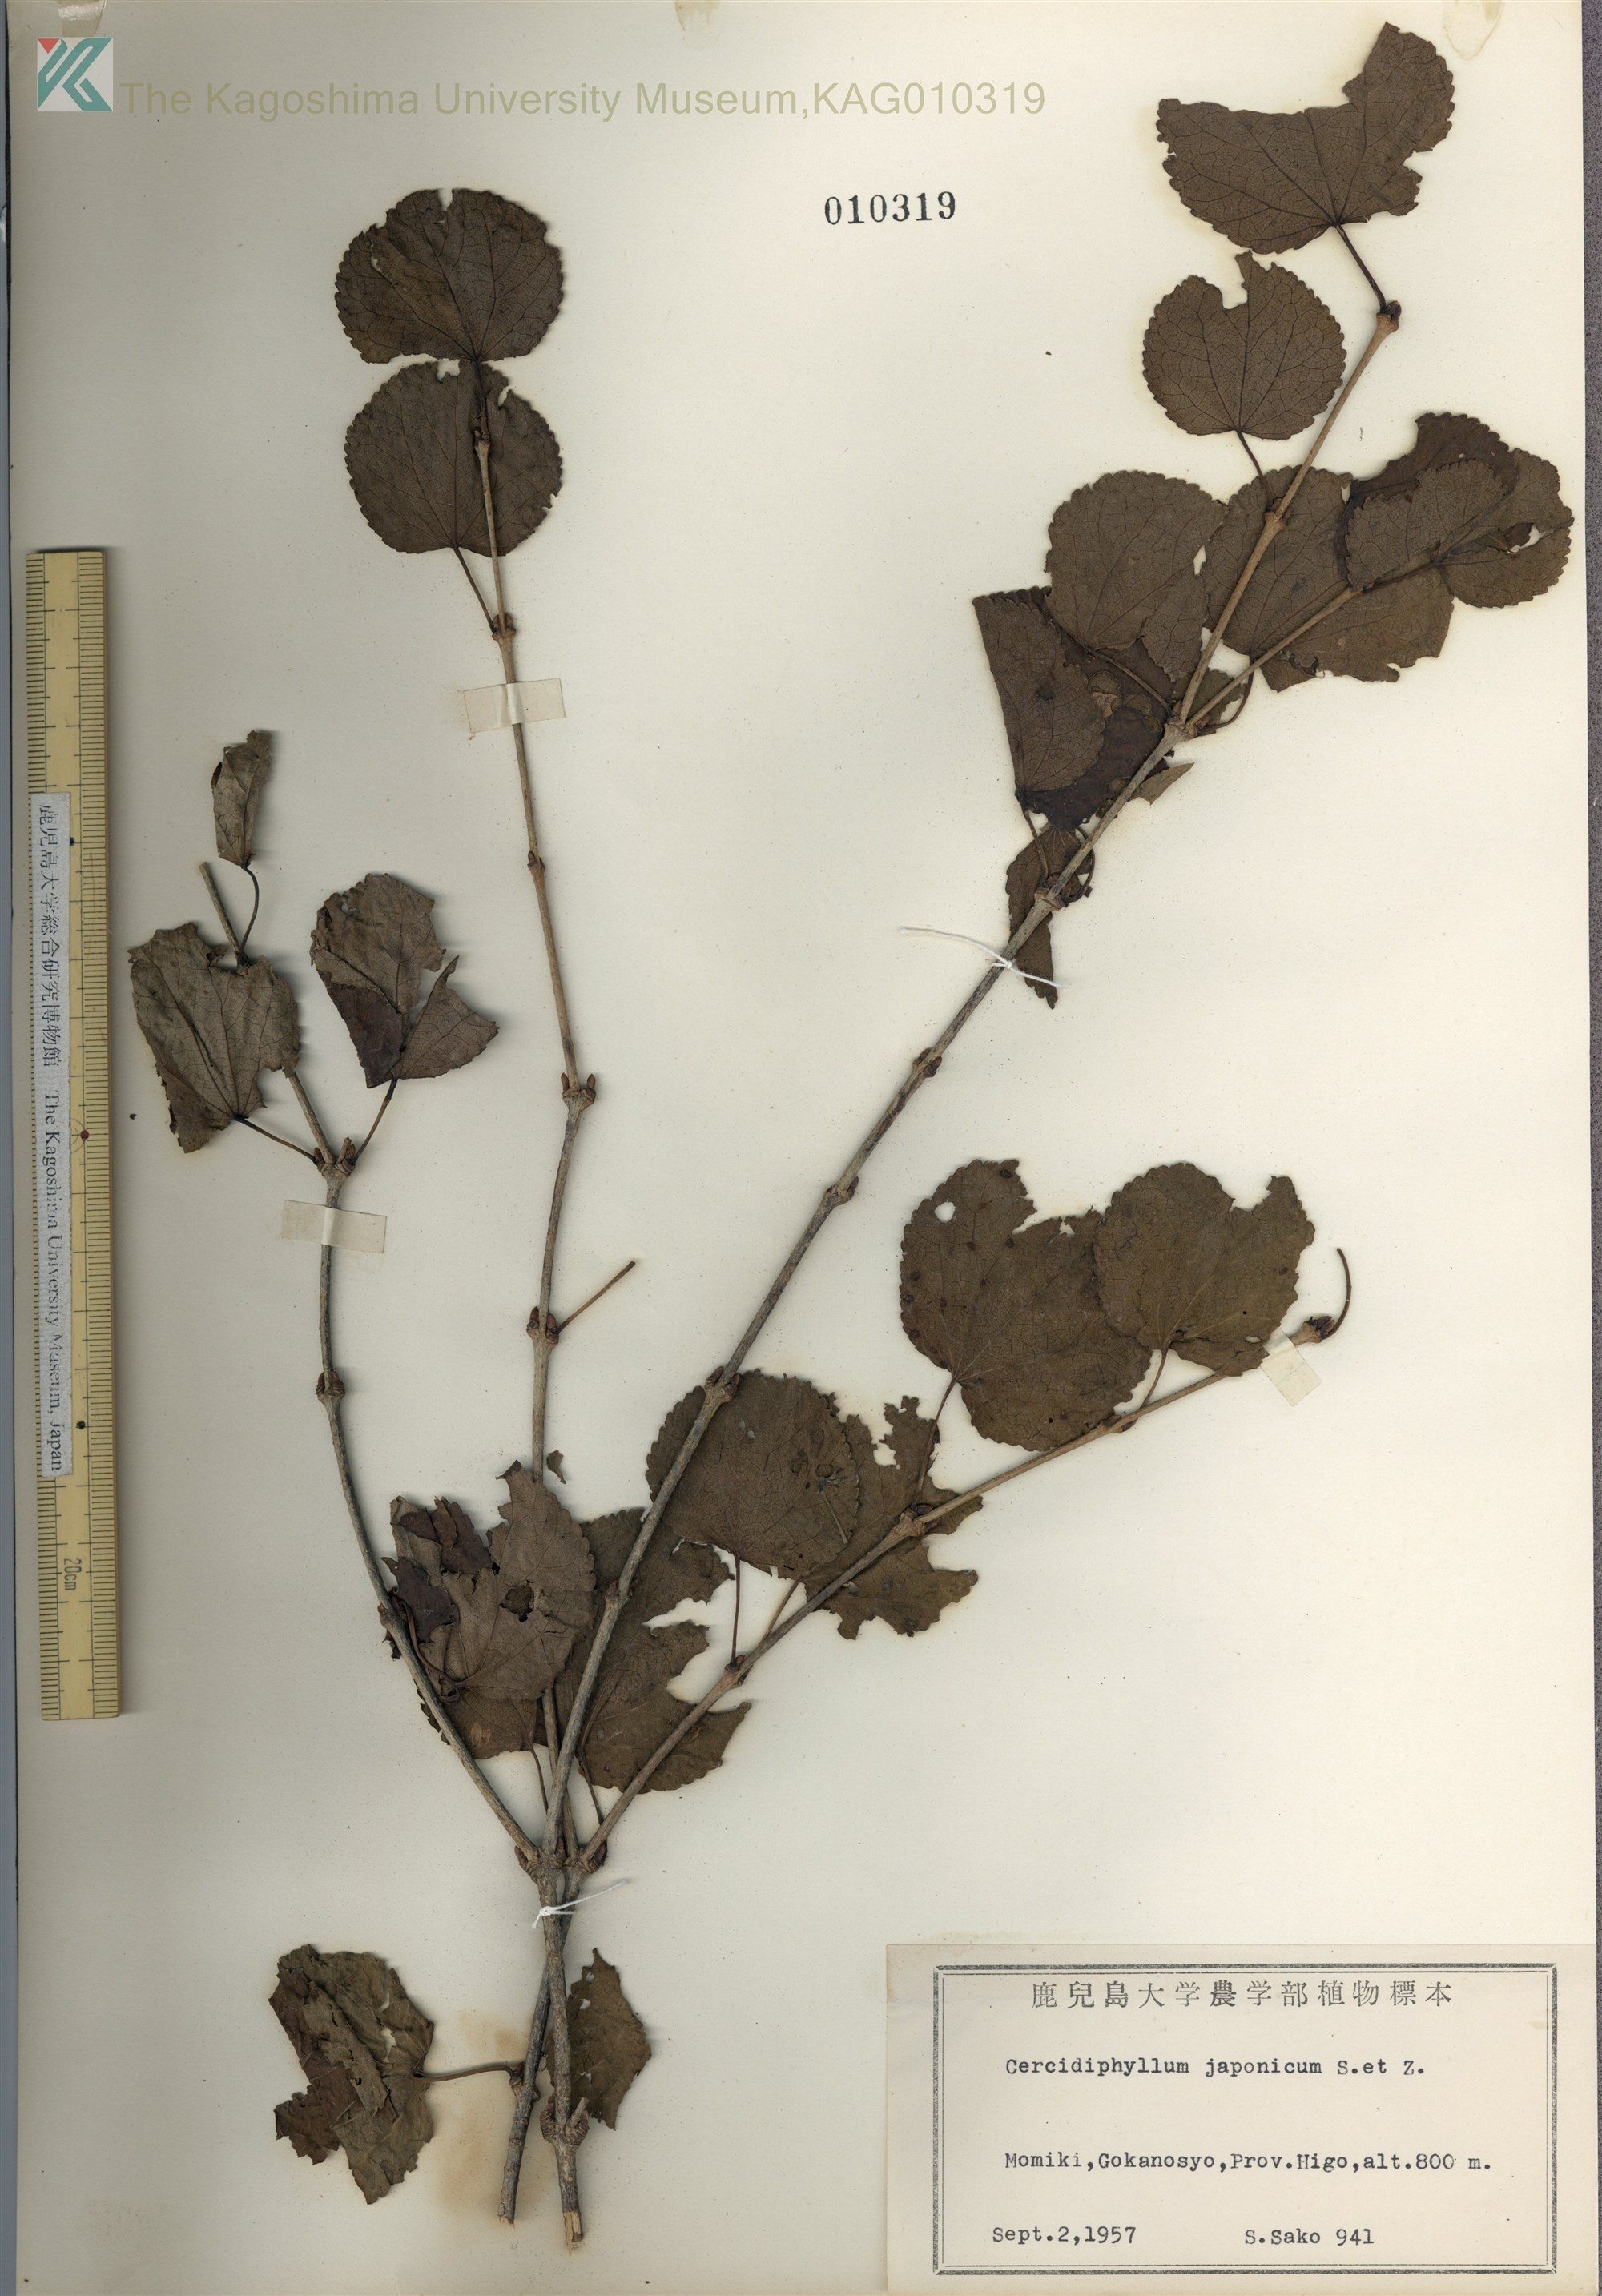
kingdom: Plantae
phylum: Tracheophyta
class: Magnoliopsida
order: Saxifragales
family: Cercidiphyllaceae
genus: Cercidiphyllum
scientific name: Cercidiphyllum japonicum
